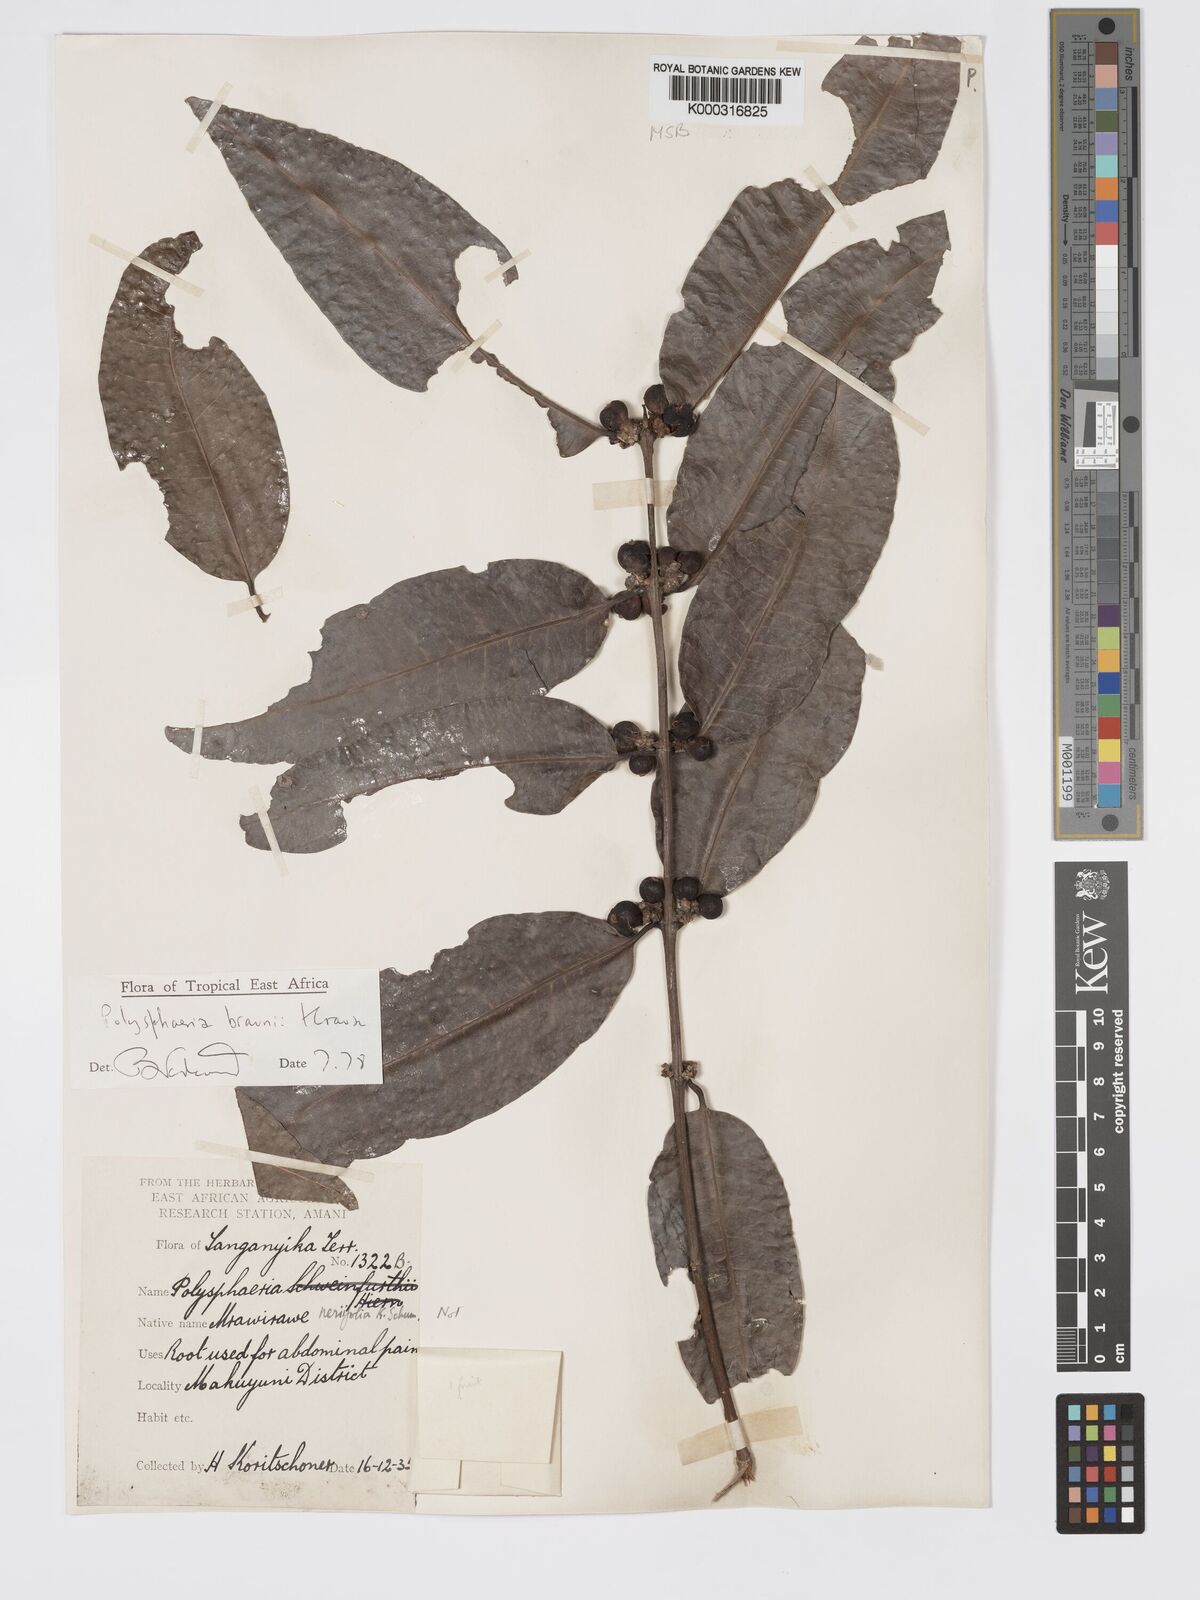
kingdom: Plantae
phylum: Tracheophyta
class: Magnoliopsida
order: Gentianales
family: Rubiaceae
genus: Polysphaeria
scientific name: Polysphaeria braunii
